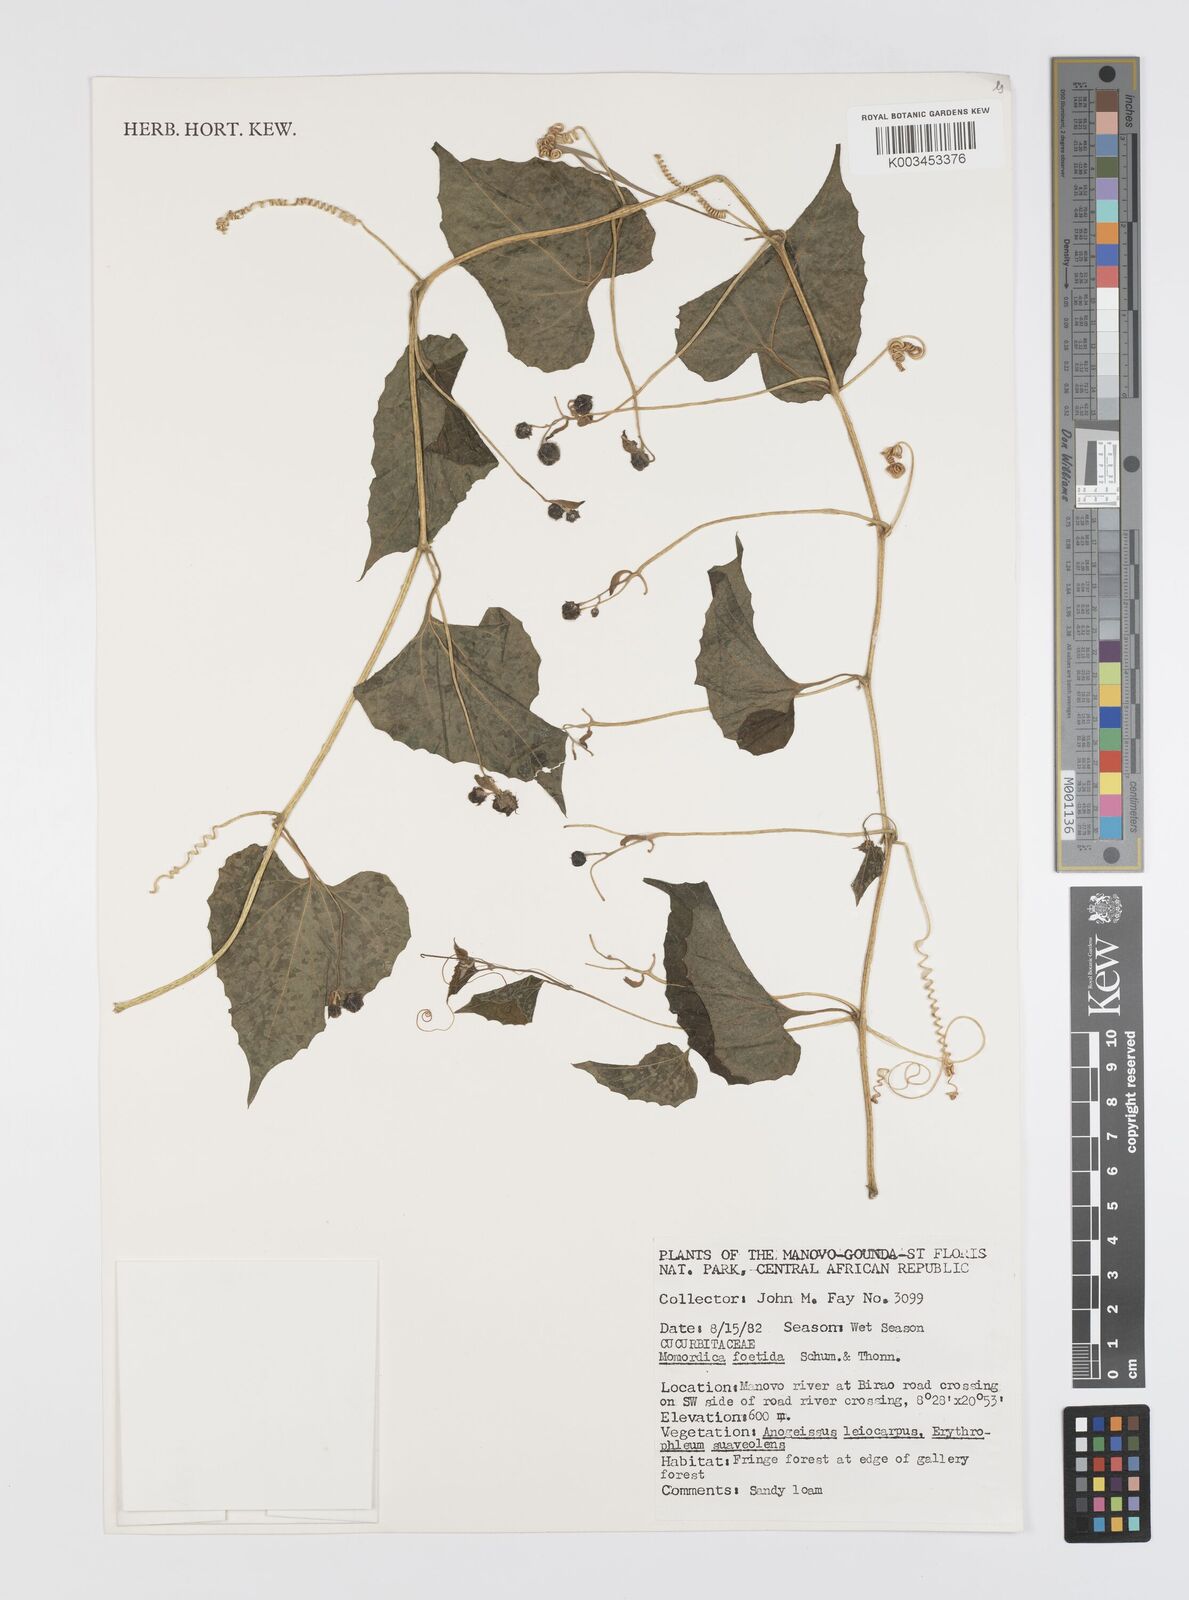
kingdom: Plantae
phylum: Tracheophyta
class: Magnoliopsida
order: Cucurbitales
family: Cucurbitaceae
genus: Momordica
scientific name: Momordica foetida
